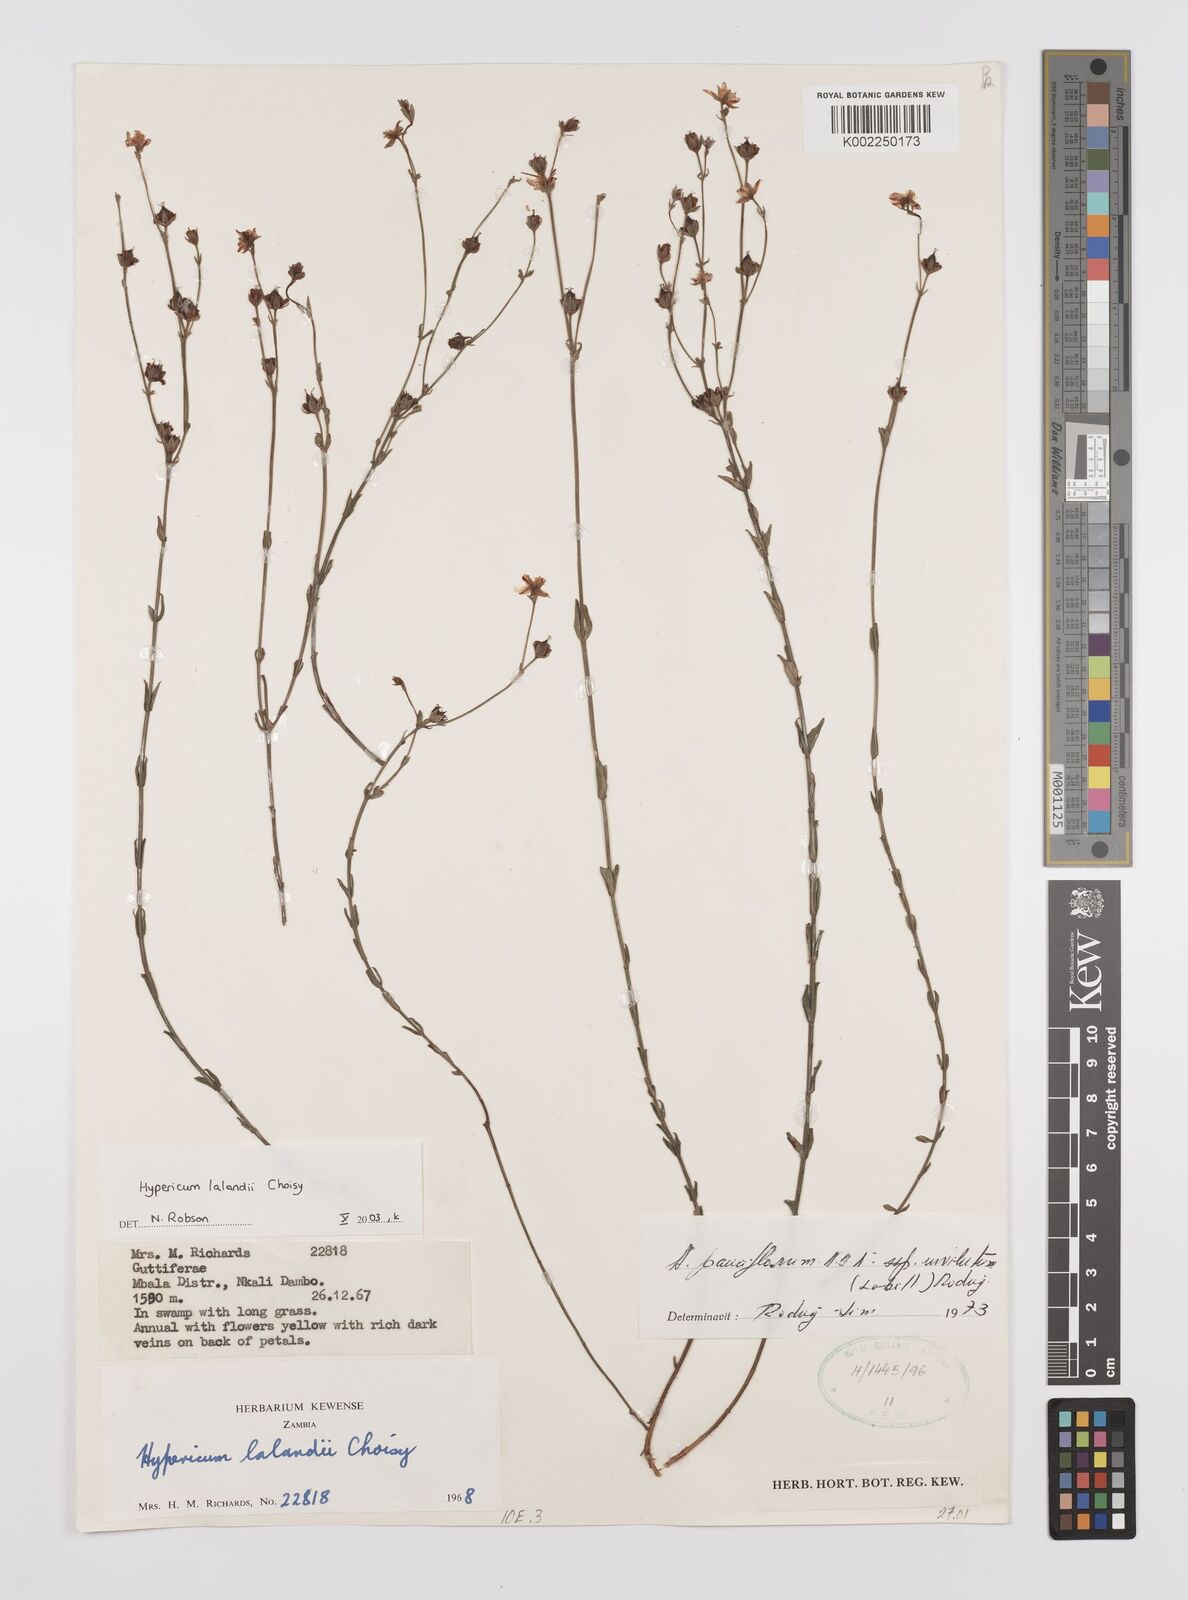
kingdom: Plantae
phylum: Tracheophyta
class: Magnoliopsida
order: Malpighiales
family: Hypericaceae
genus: Hypericum
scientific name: Hypericum lalandii
